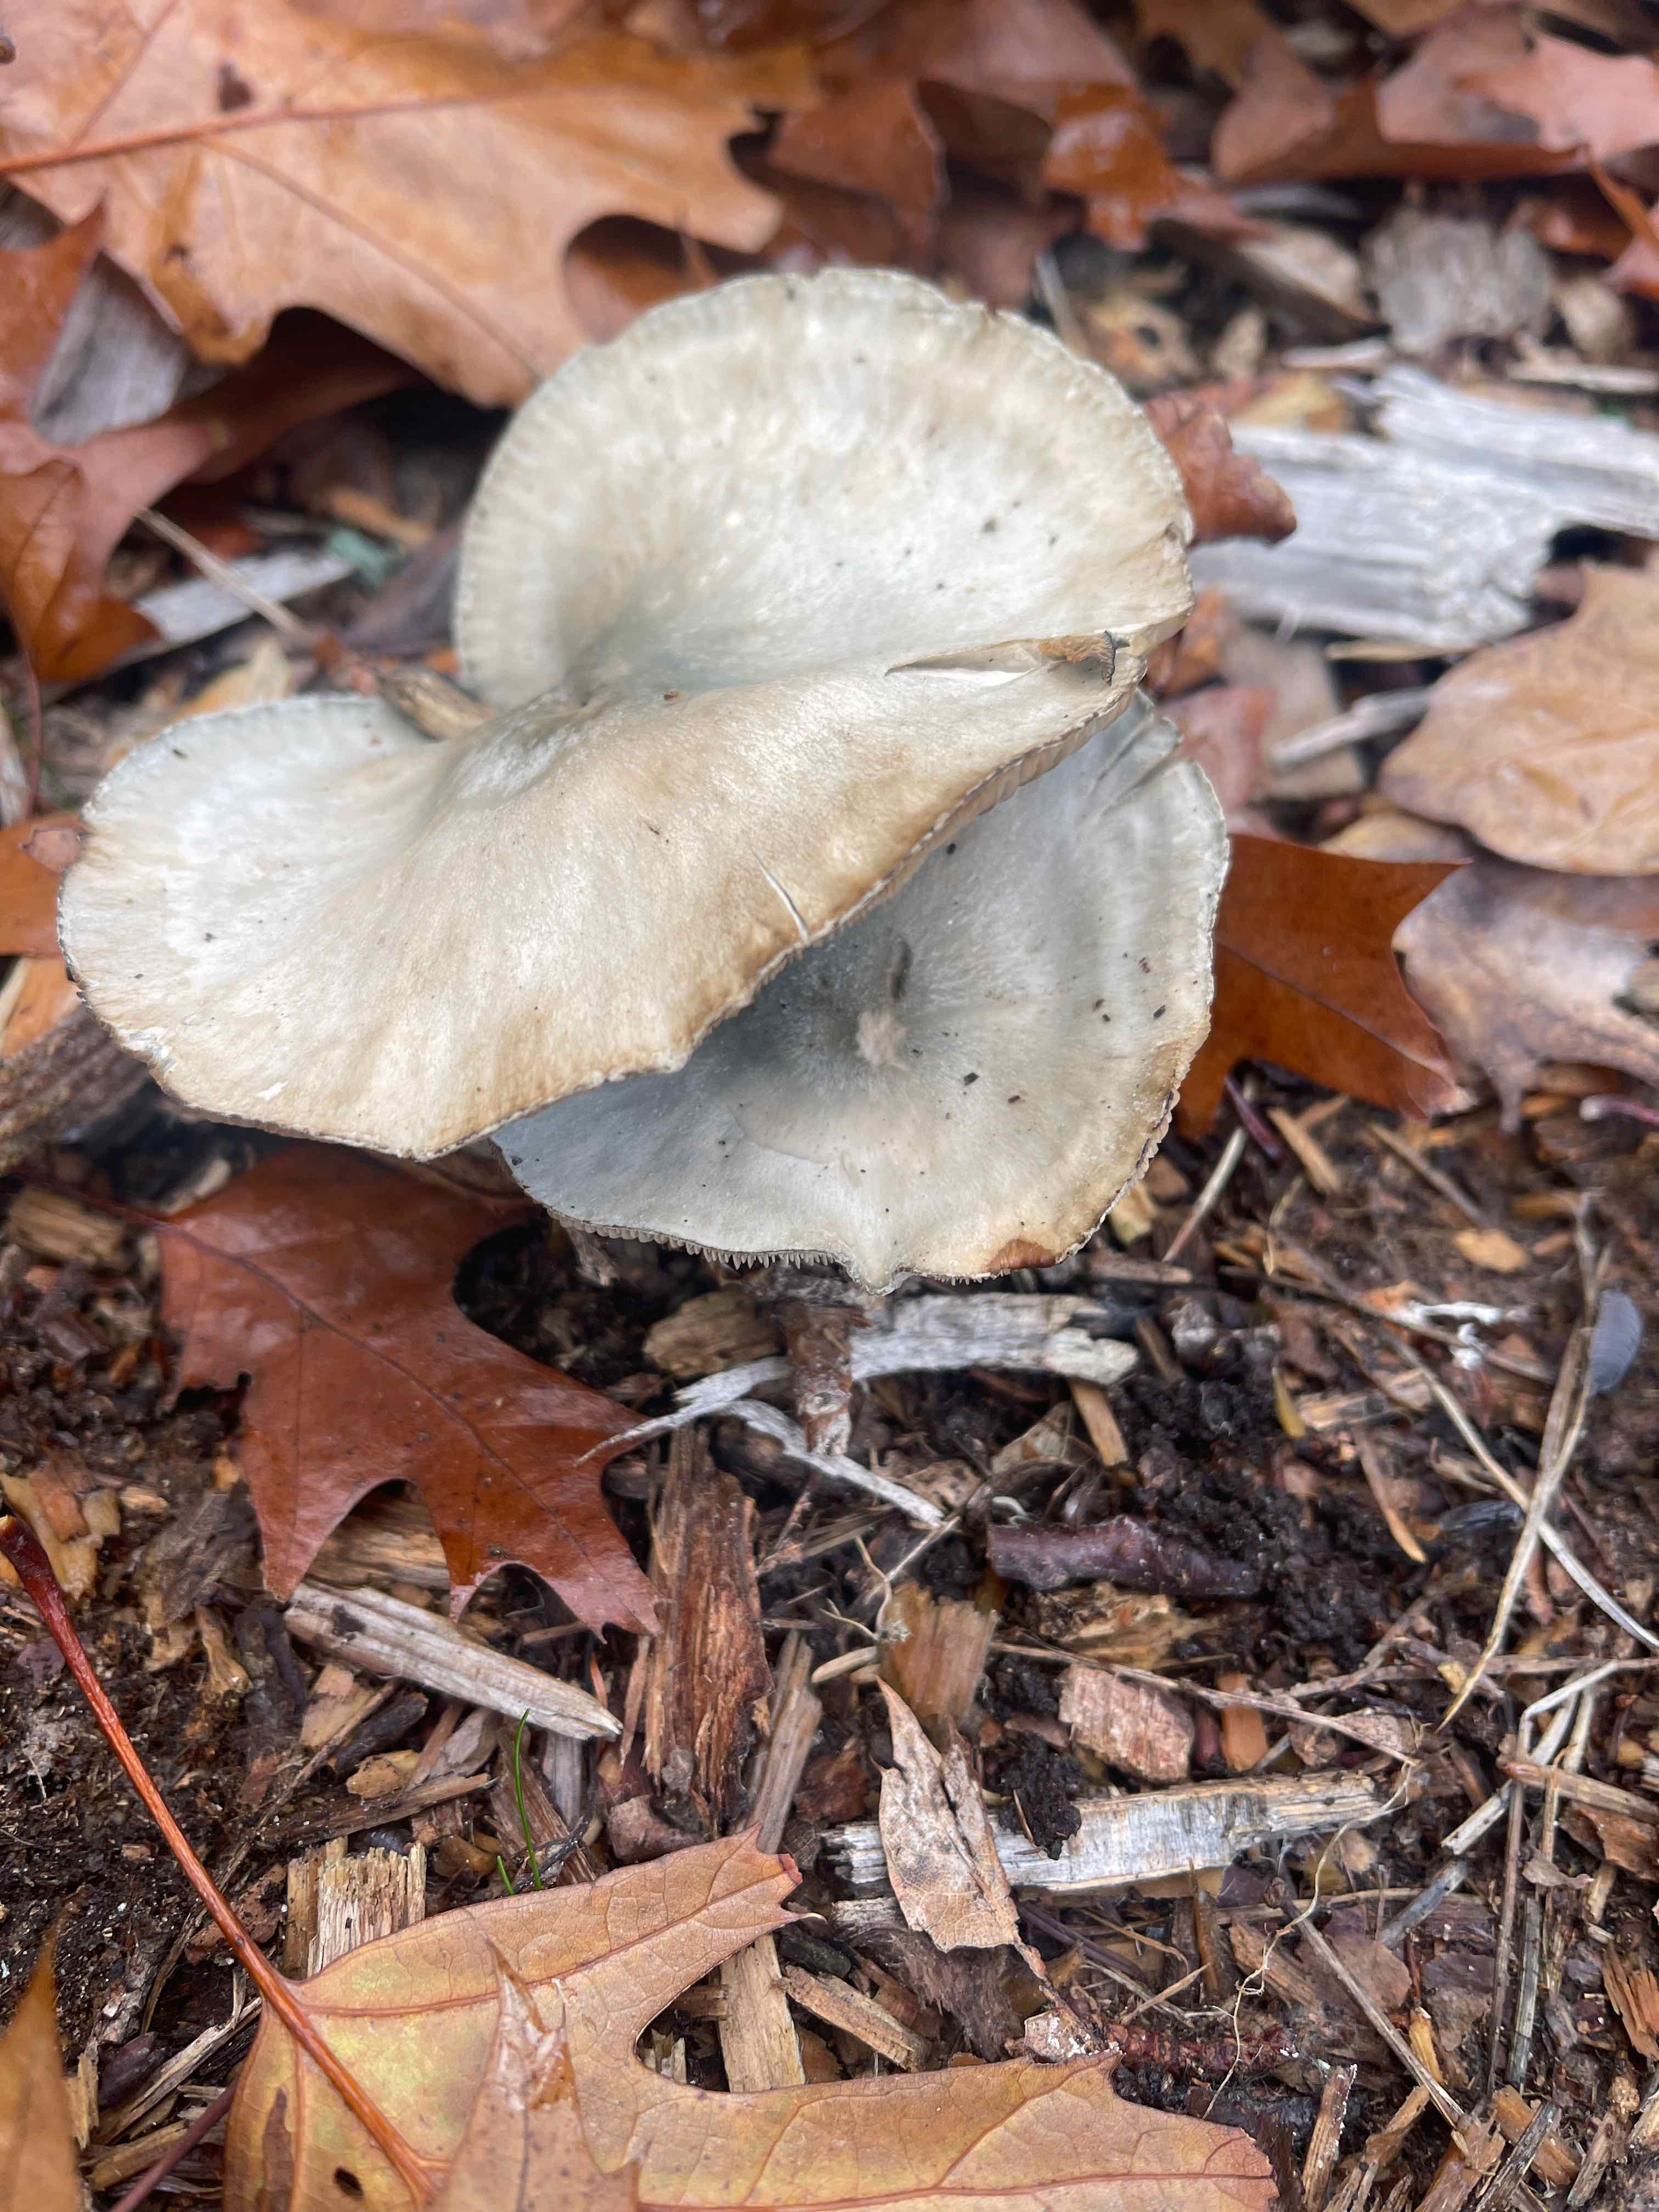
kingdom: Fungi
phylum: Basidiomycota
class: Agaricomycetes
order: Agaricales
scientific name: Agaricales
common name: champignonordenen
